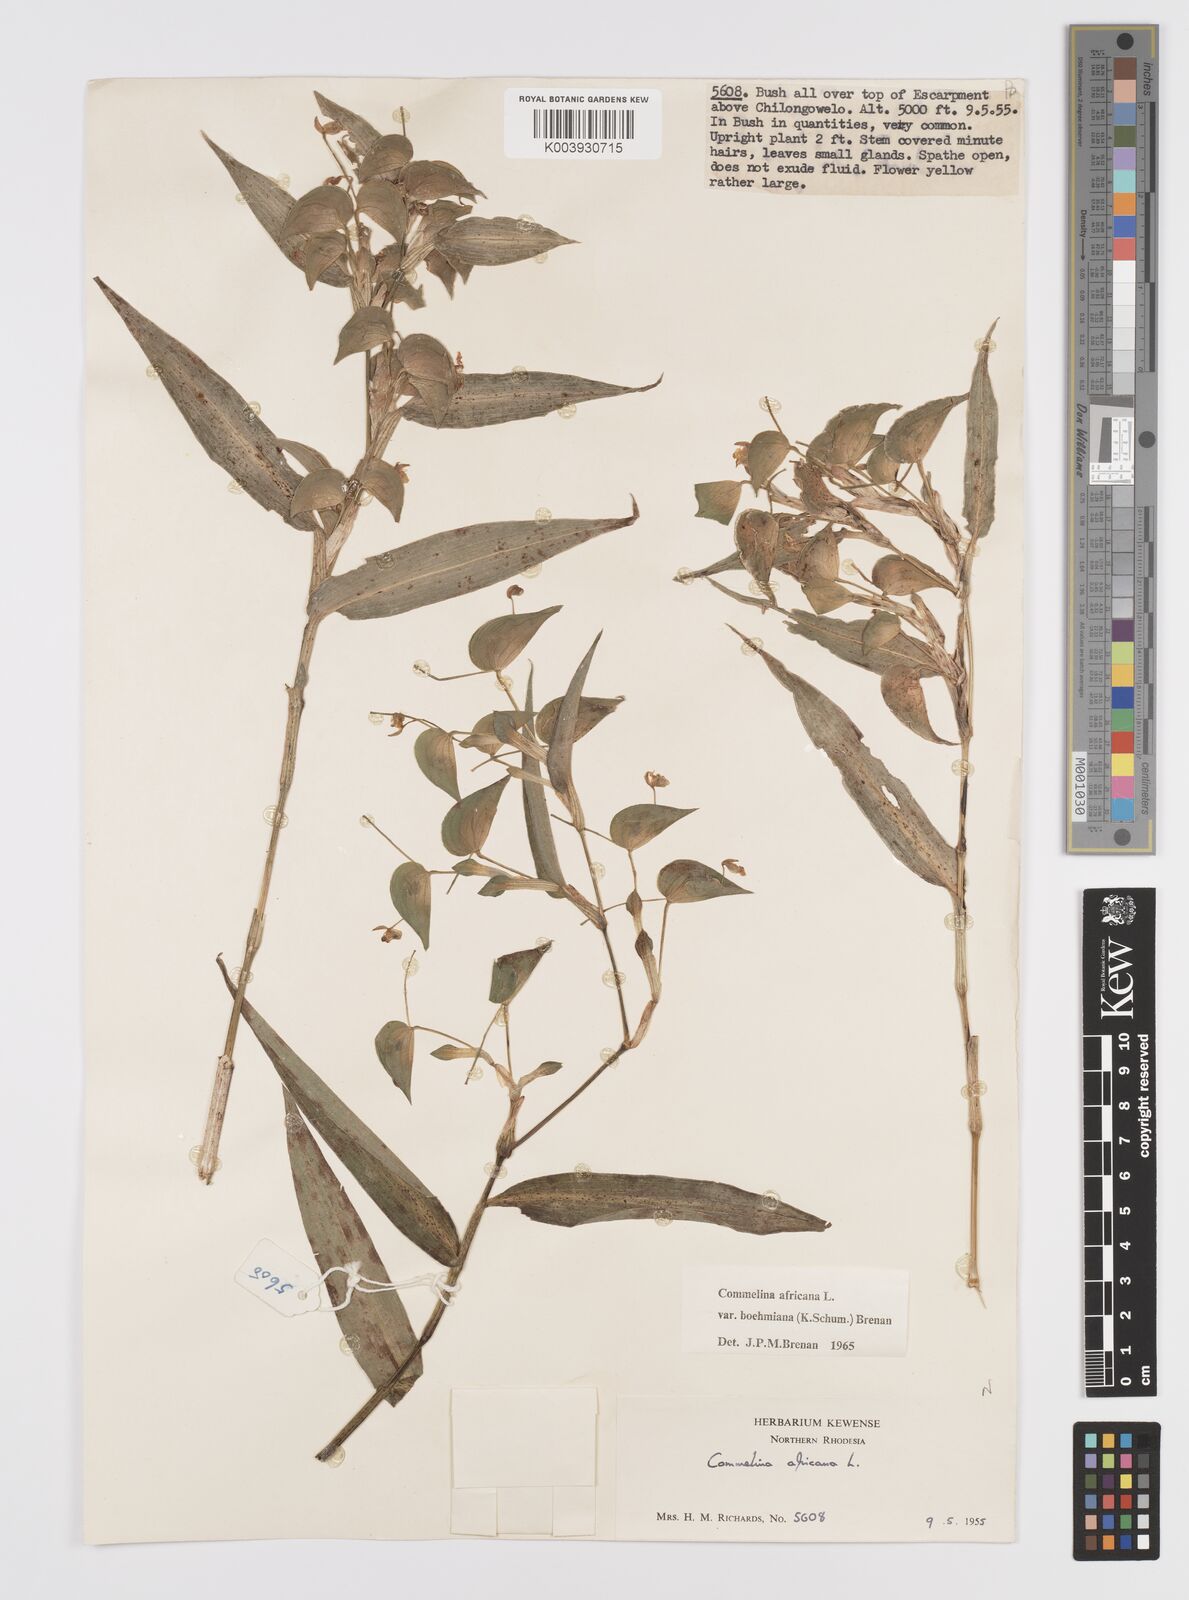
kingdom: Plantae
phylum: Tracheophyta
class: Liliopsida
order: Commelinales
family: Commelinaceae
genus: Commelina
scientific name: Commelina africana
